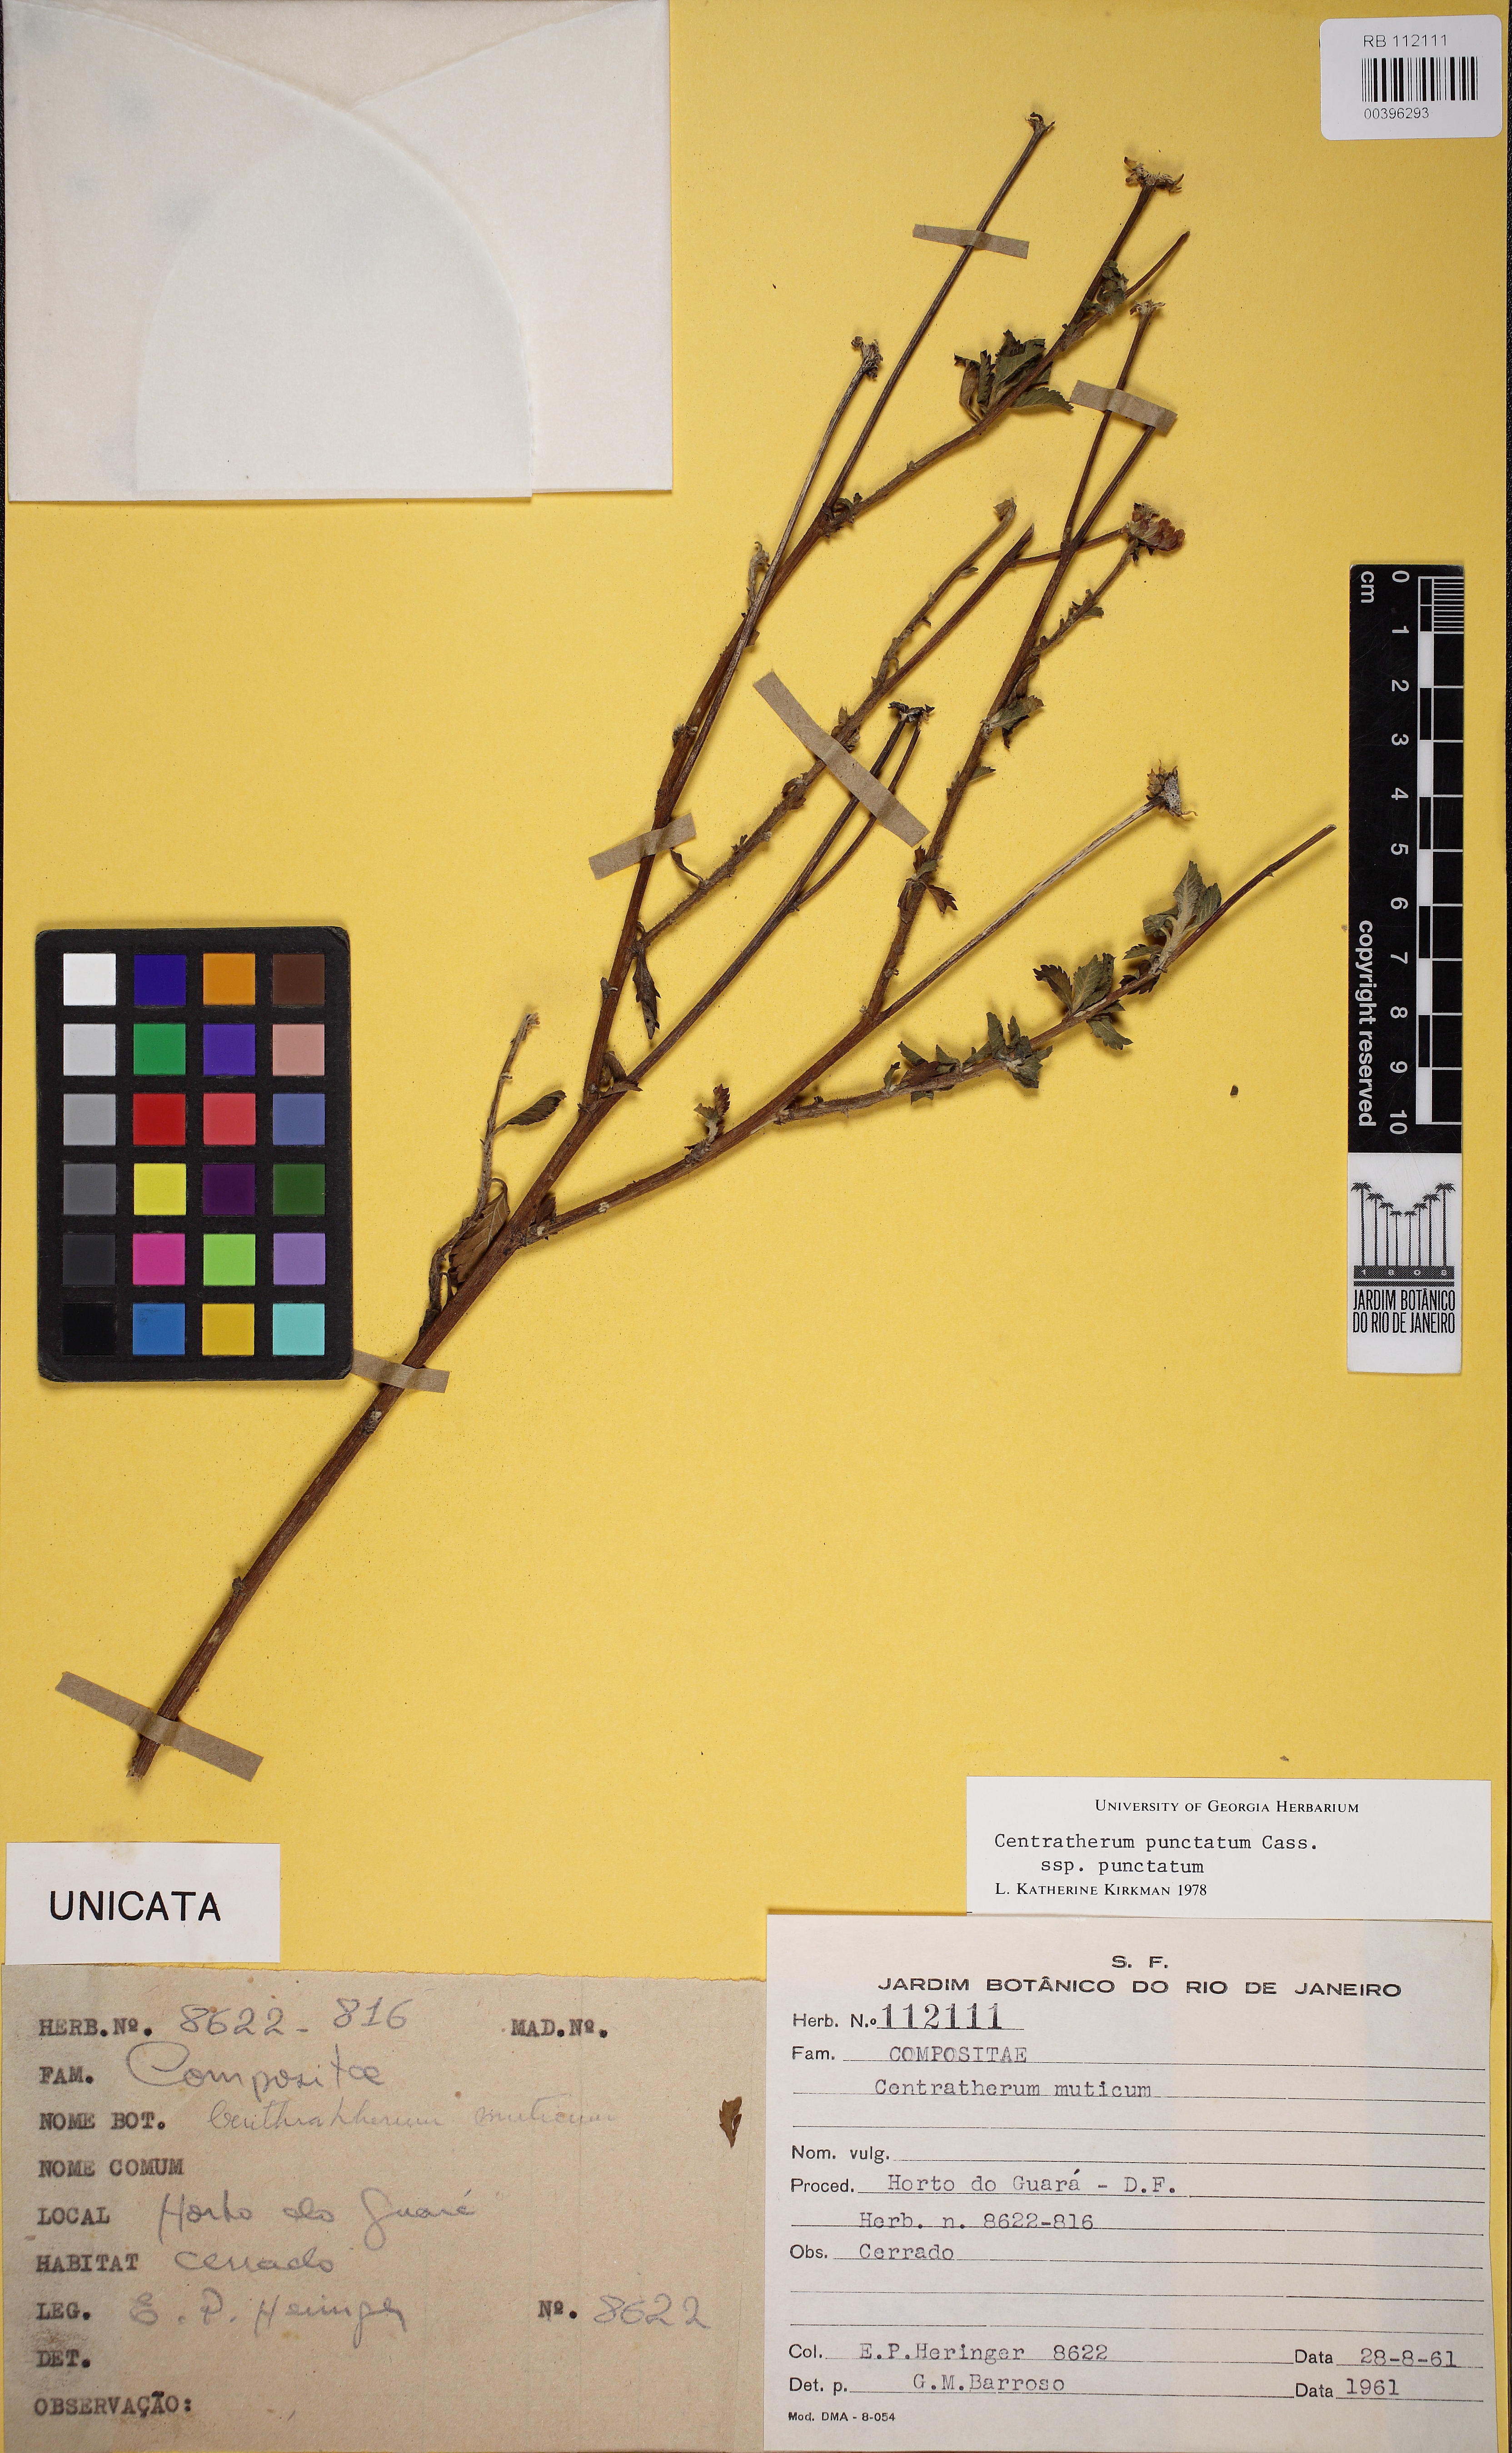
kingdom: Plantae
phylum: Tracheophyta
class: Magnoliopsida
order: Asterales
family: Asteraceae
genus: Centratherum
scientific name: Centratherum punctatum
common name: Larkdaisy
